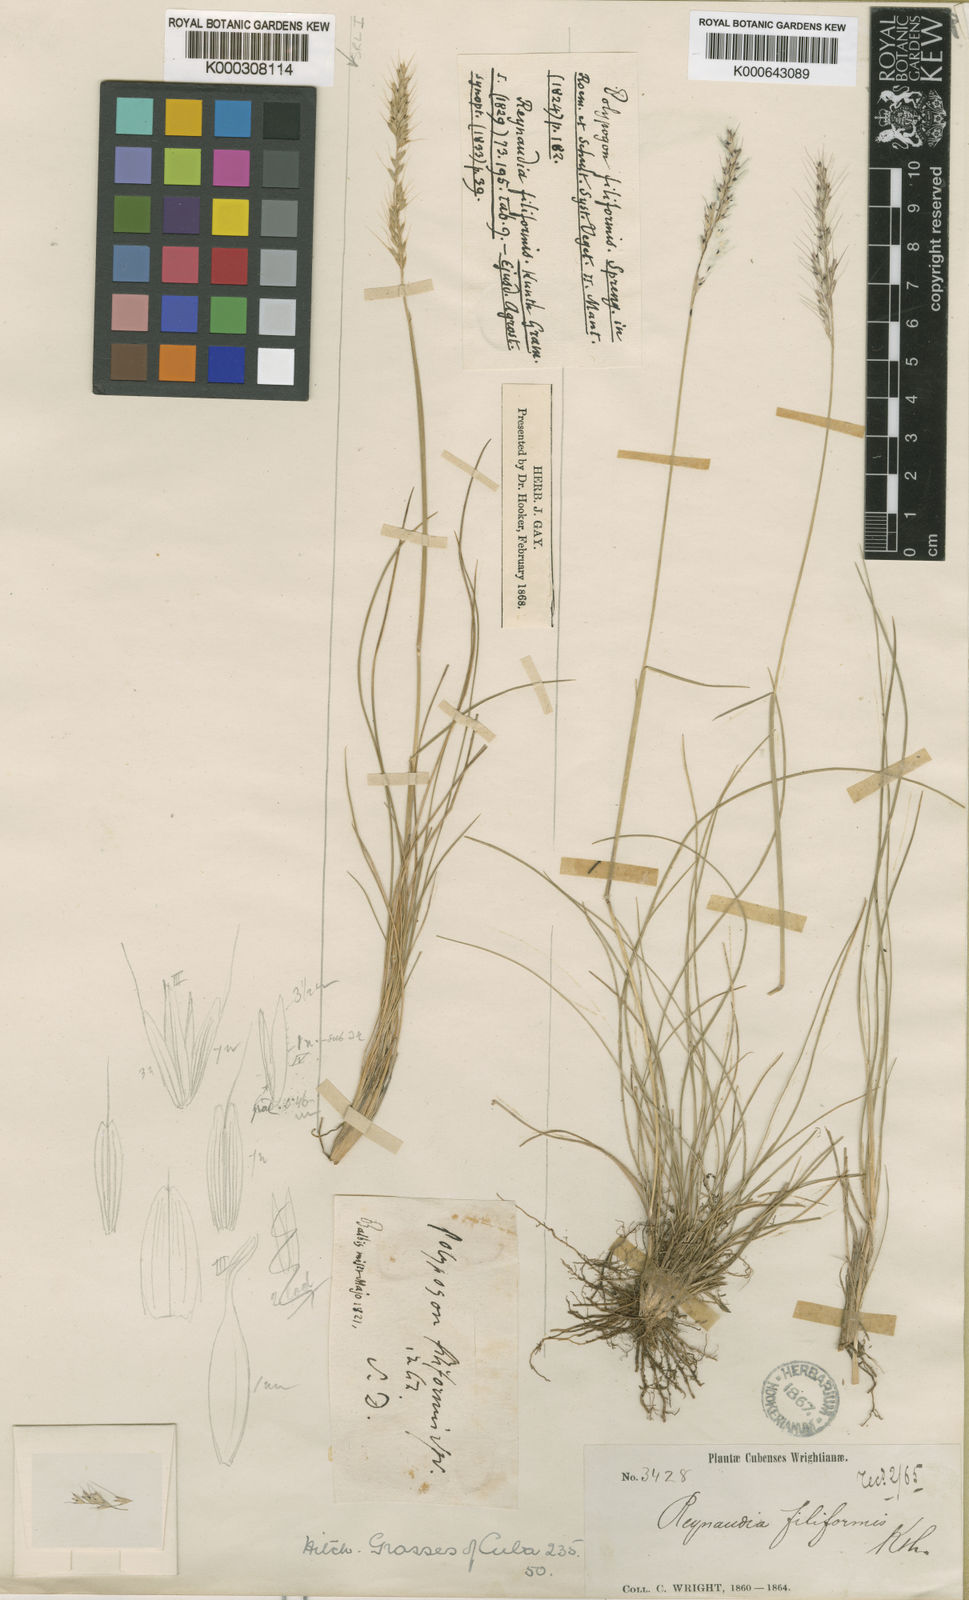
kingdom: Plantae
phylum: Tracheophyta
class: Liliopsida
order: Poales
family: Poaceae
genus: Reynaudia
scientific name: Reynaudia filiformis
